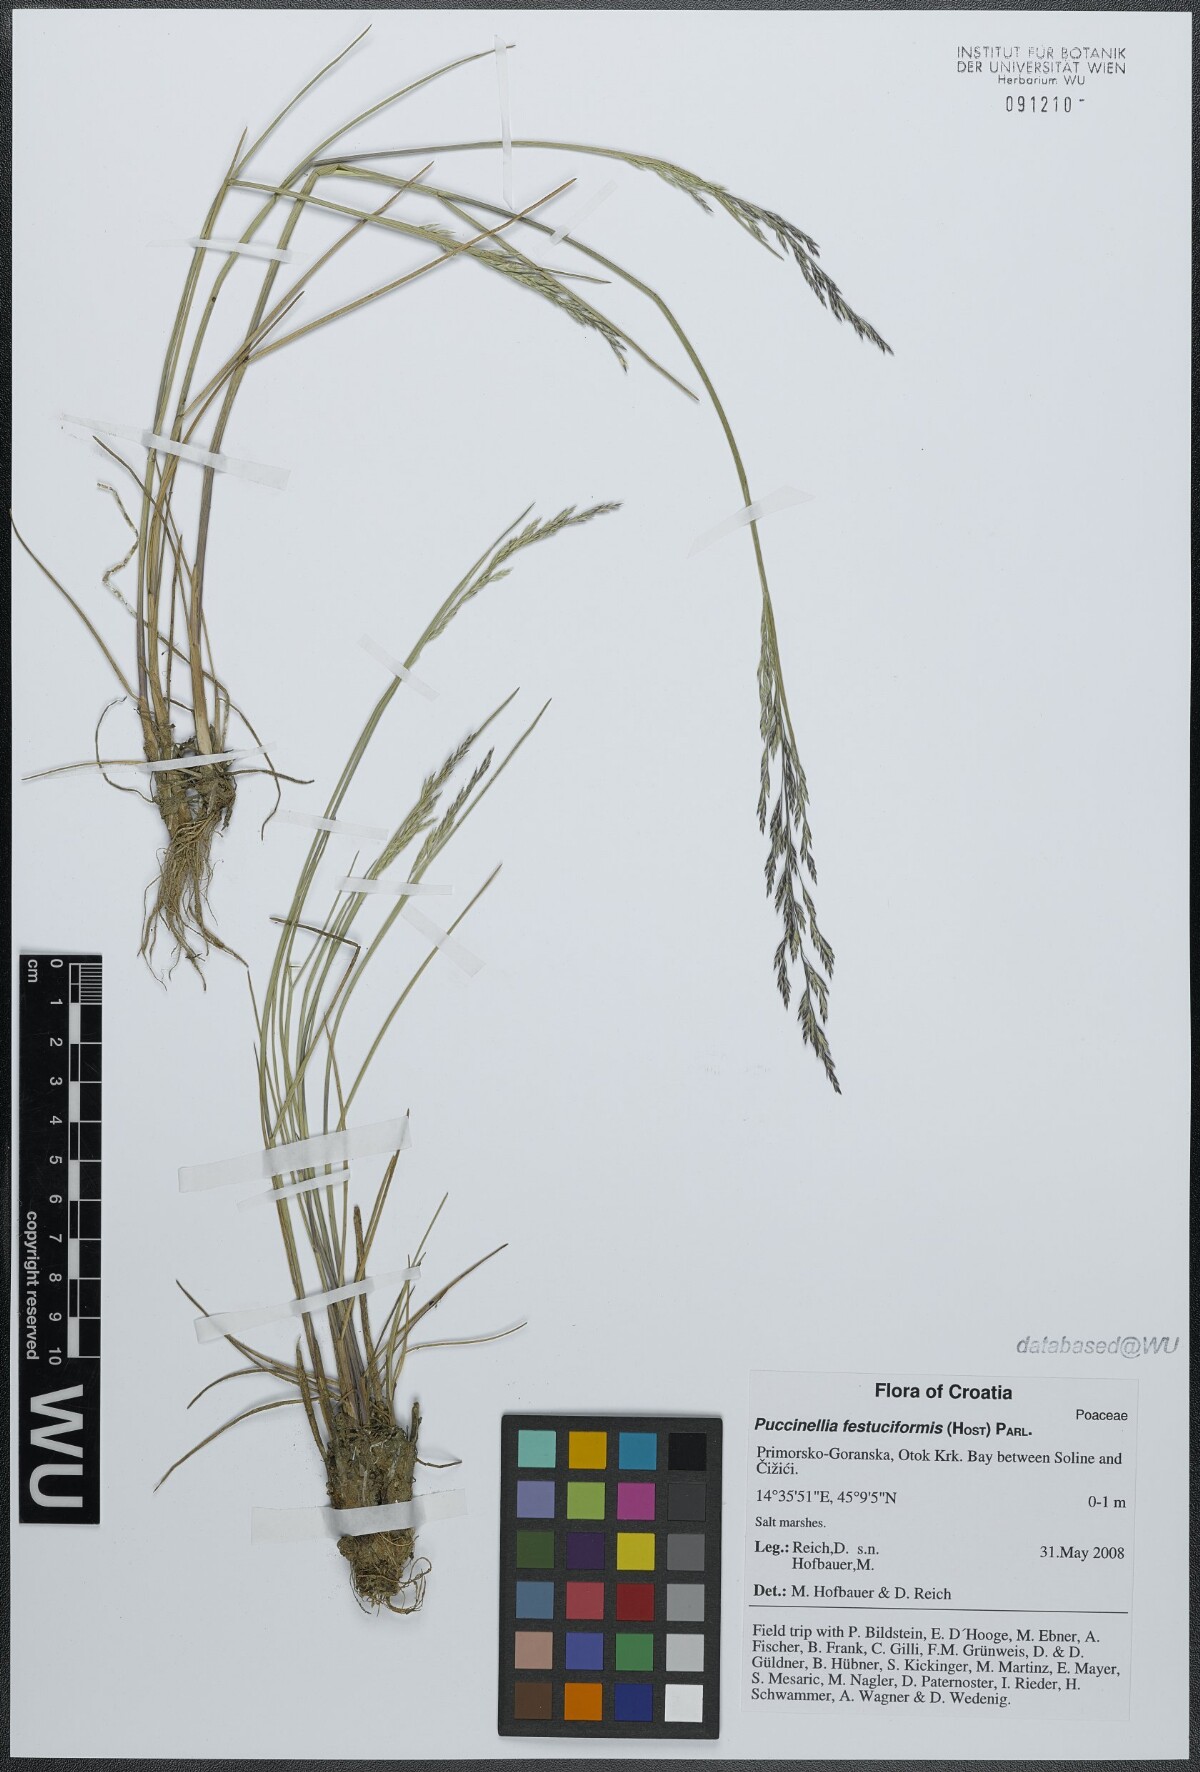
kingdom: Plantae
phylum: Tracheophyta
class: Liliopsida
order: Poales
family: Poaceae
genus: Puccinellia
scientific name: Puccinellia festuciformis
